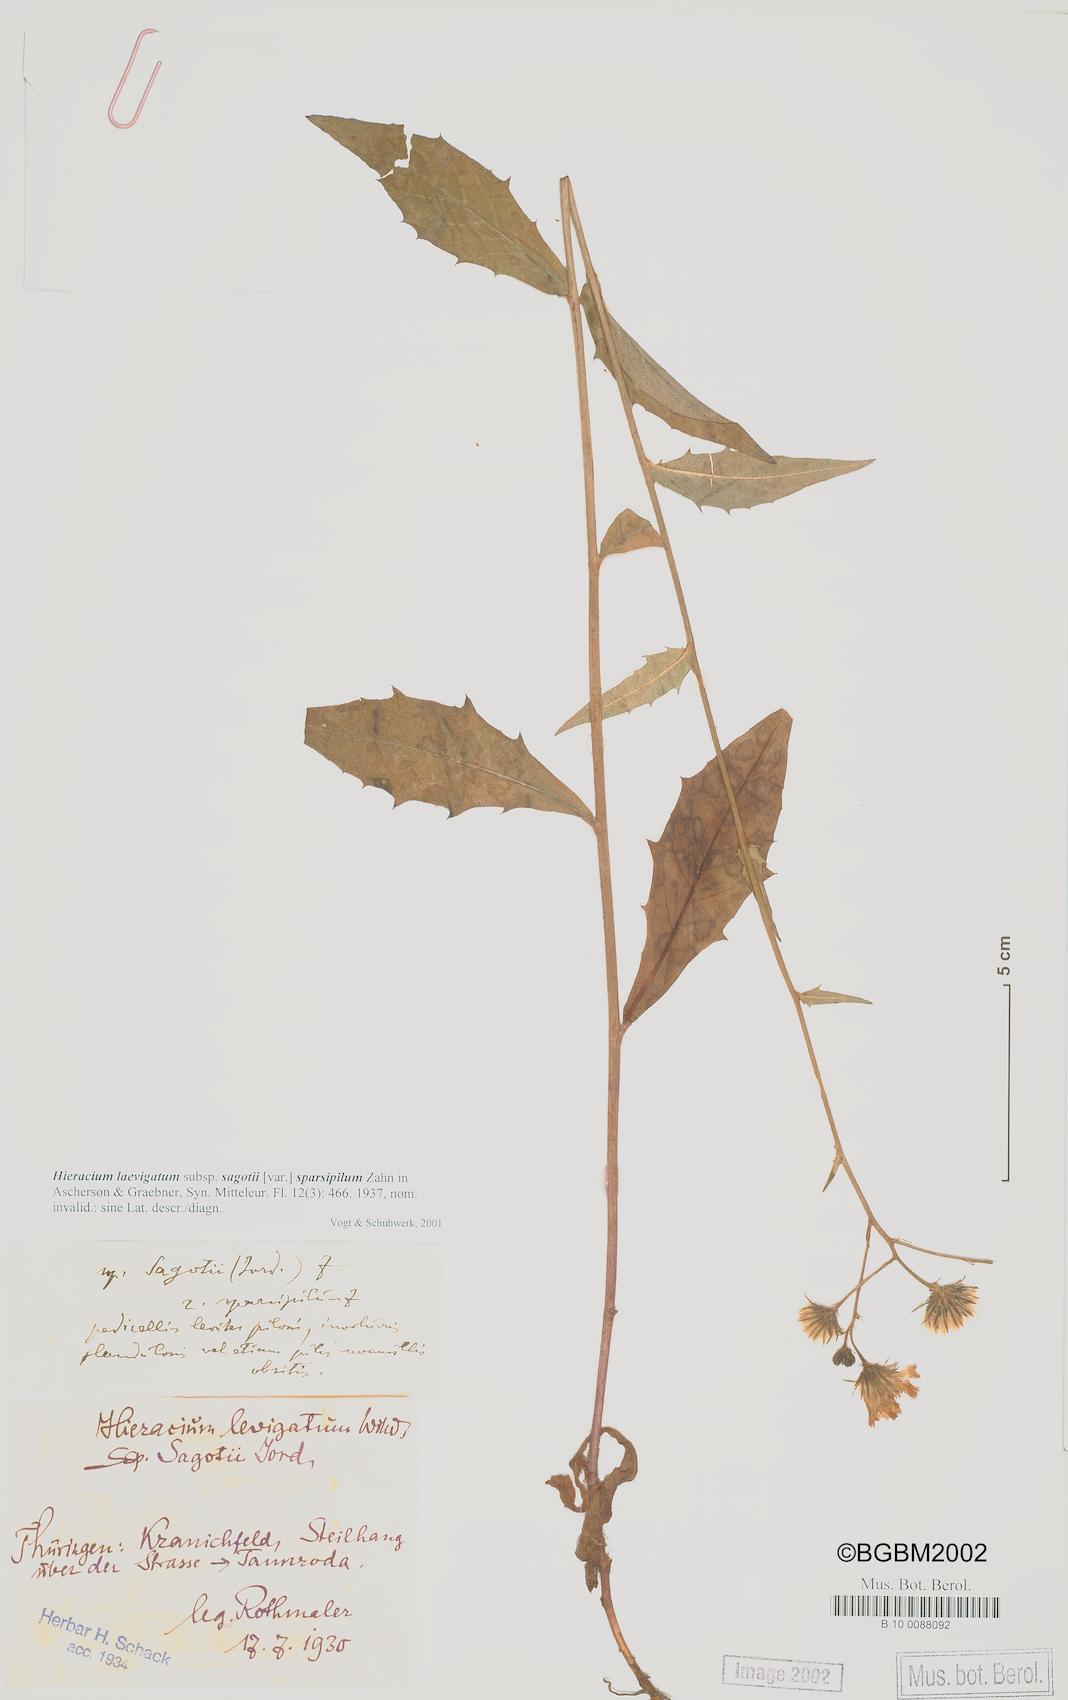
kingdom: Plantae
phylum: Tracheophyta
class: Magnoliopsida
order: Asterales
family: Asteraceae
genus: Hieracium
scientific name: Hieracium laevigatum
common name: Smooth hawkweed
